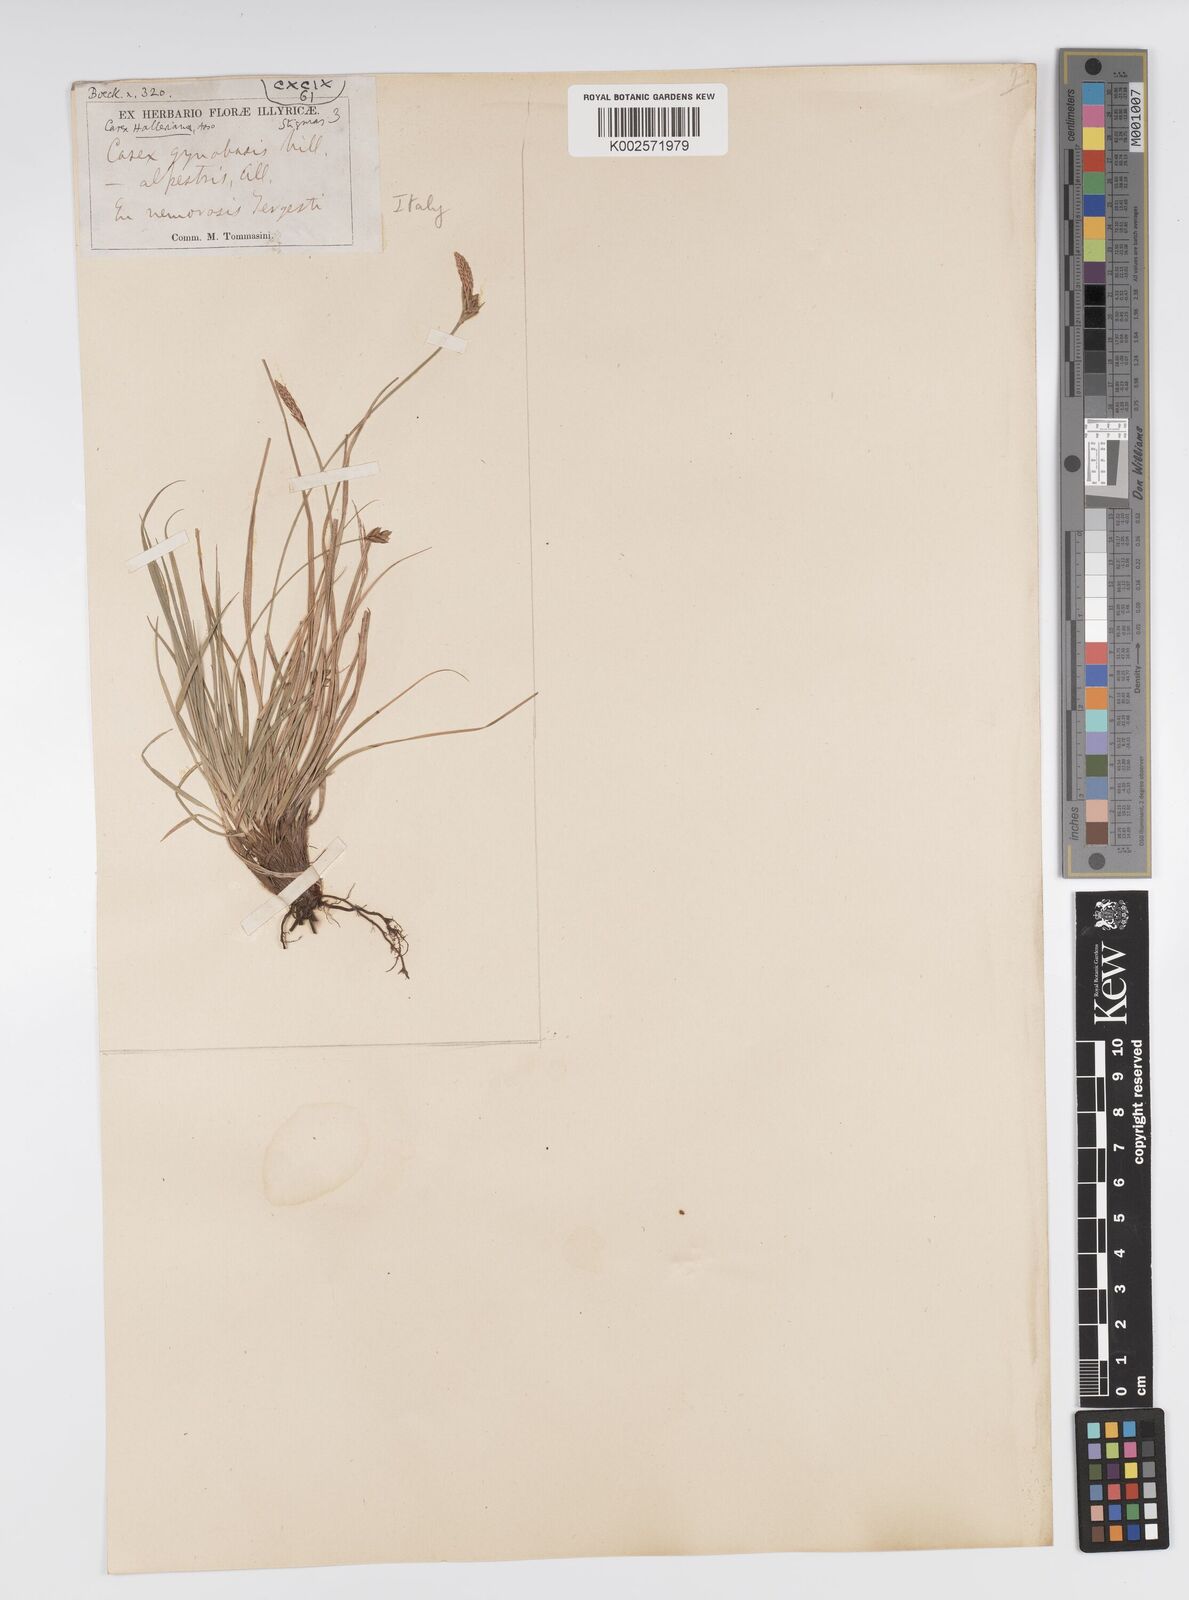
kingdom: Plantae
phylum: Tracheophyta
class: Liliopsida
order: Poales
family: Cyperaceae
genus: Carex
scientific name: Carex halleriana
